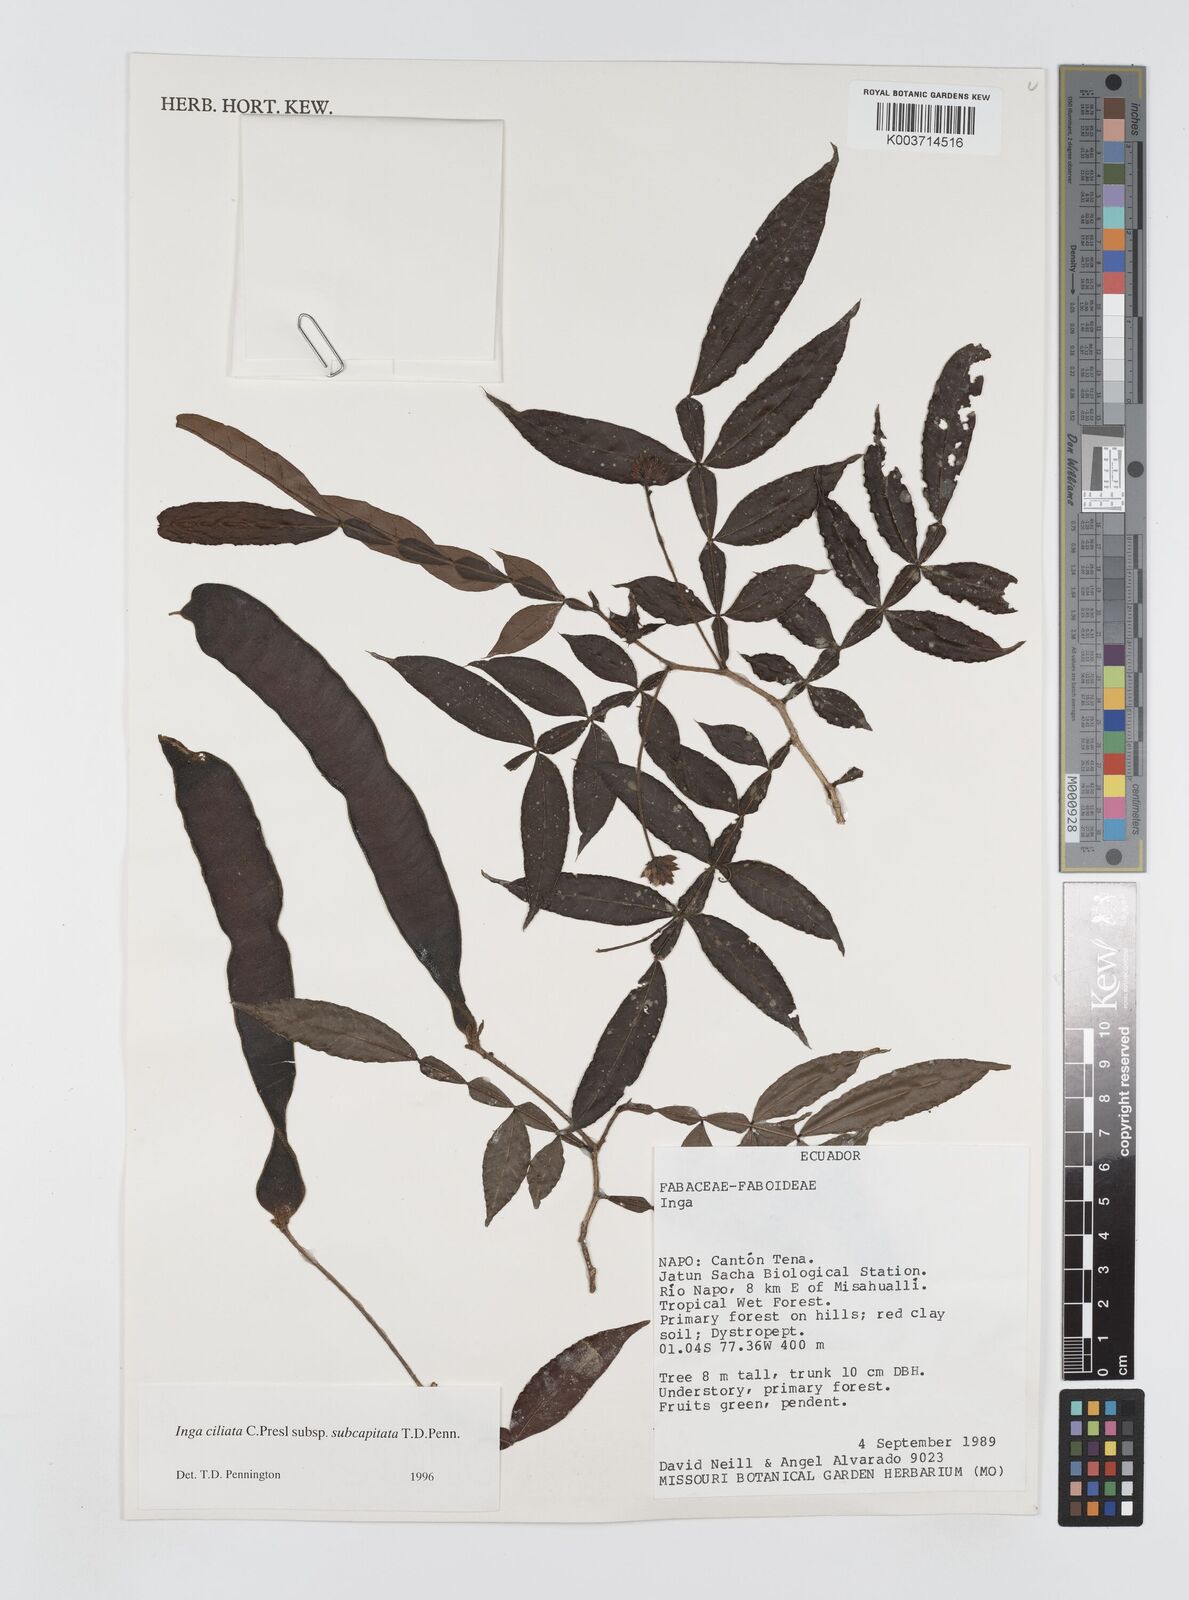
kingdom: Plantae
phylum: Tracheophyta
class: Magnoliopsida
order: Fabales
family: Fabaceae
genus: Inga
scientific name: Inga ciliata
